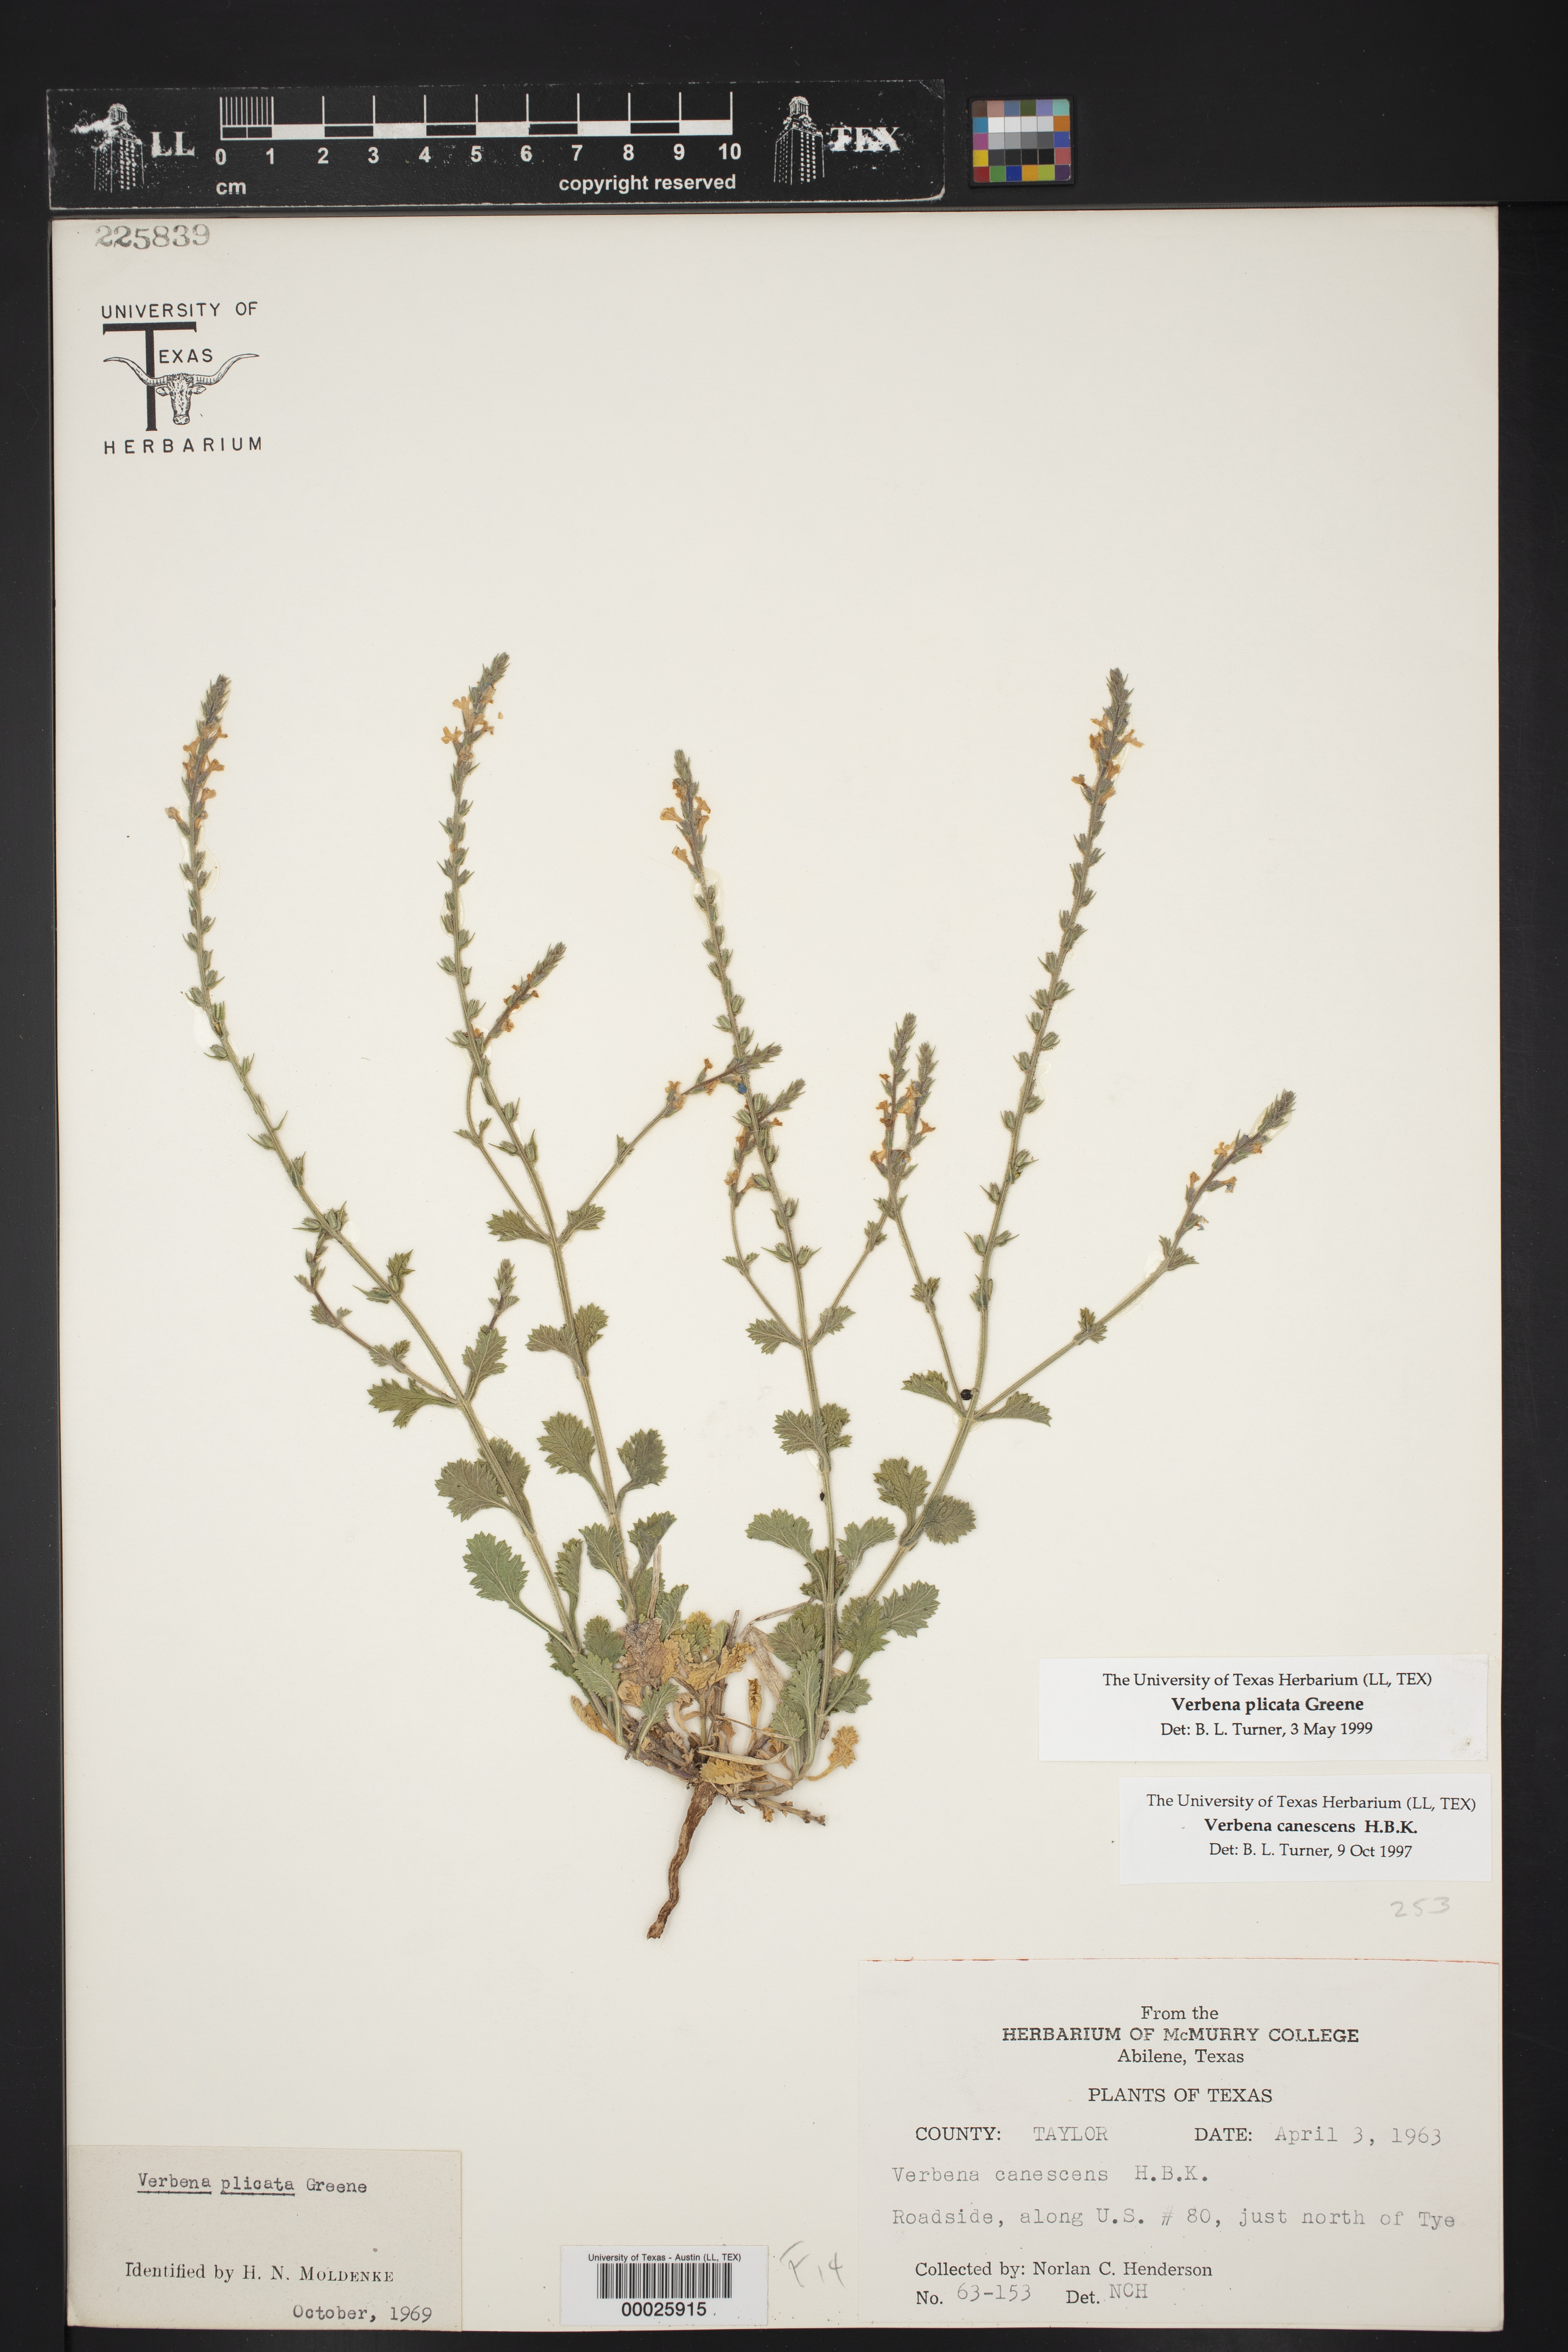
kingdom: Plantae
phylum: Tracheophyta
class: Magnoliopsida
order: Lamiales
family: Verbenaceae
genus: Verbena
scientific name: Verbena canescens
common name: Gray vervain
